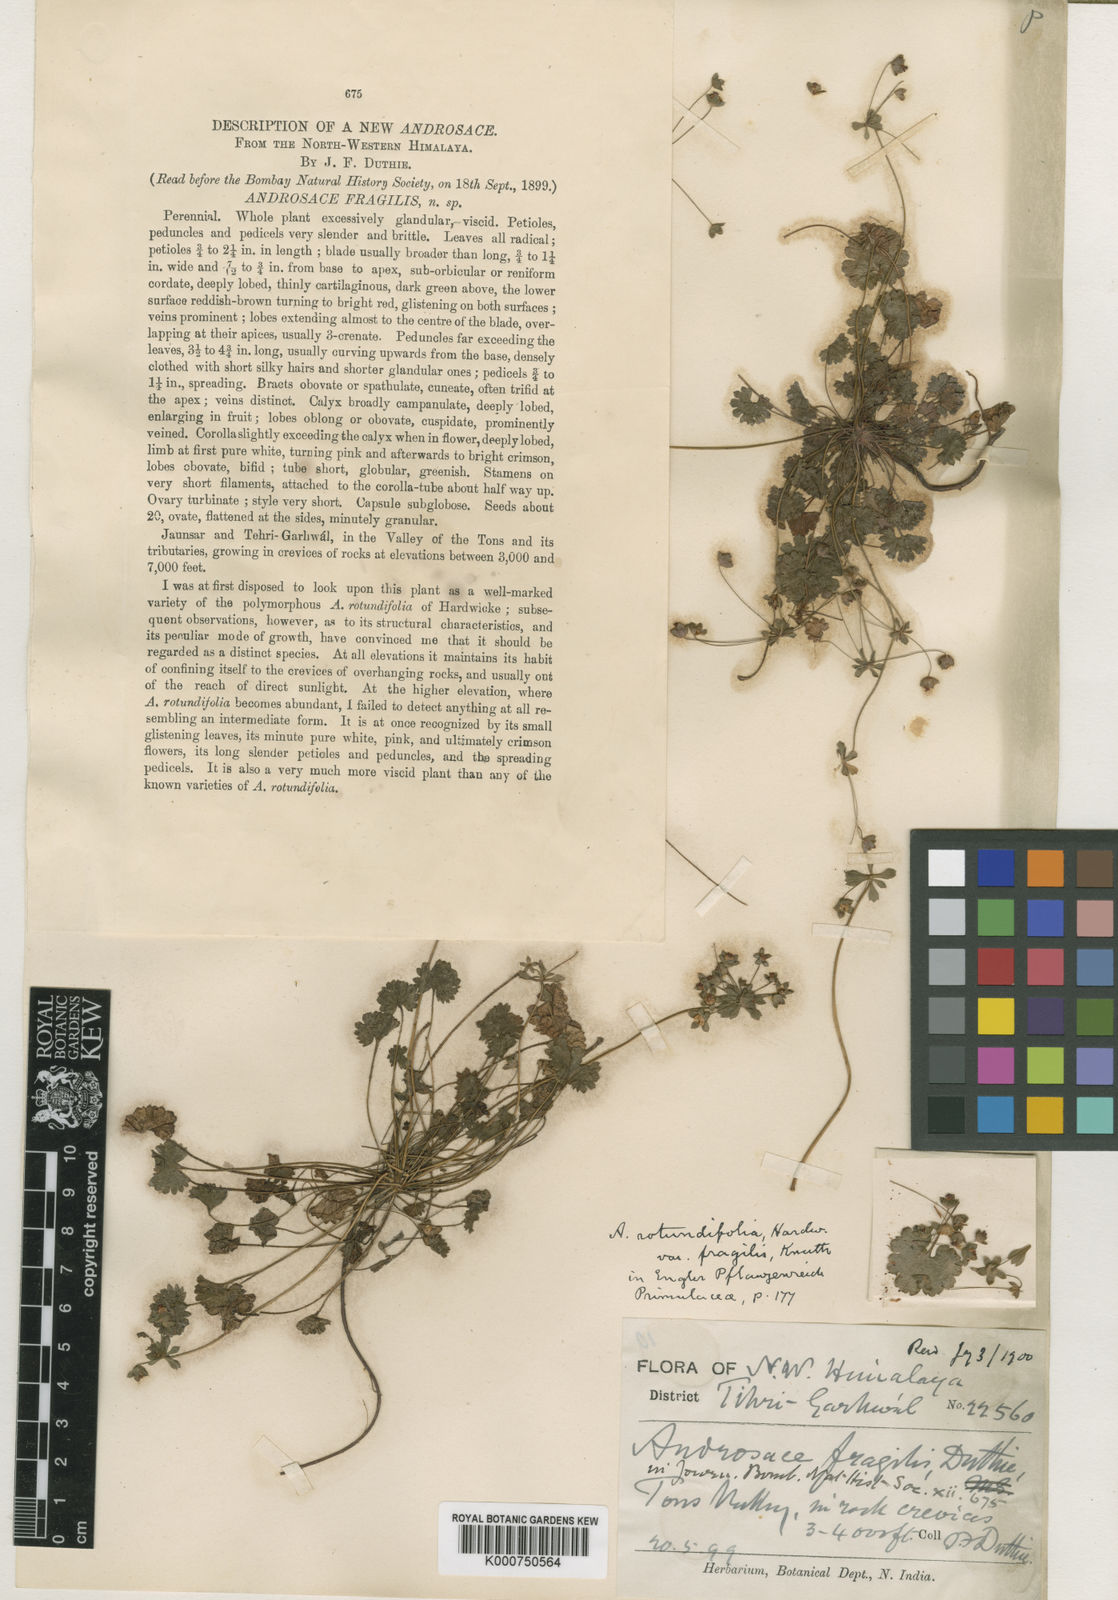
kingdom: Plantae
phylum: Tracheophyta
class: Magnoliopsida
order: Ericales
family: Primulaceae
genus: Androsace
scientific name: Androsace rotundifolia
